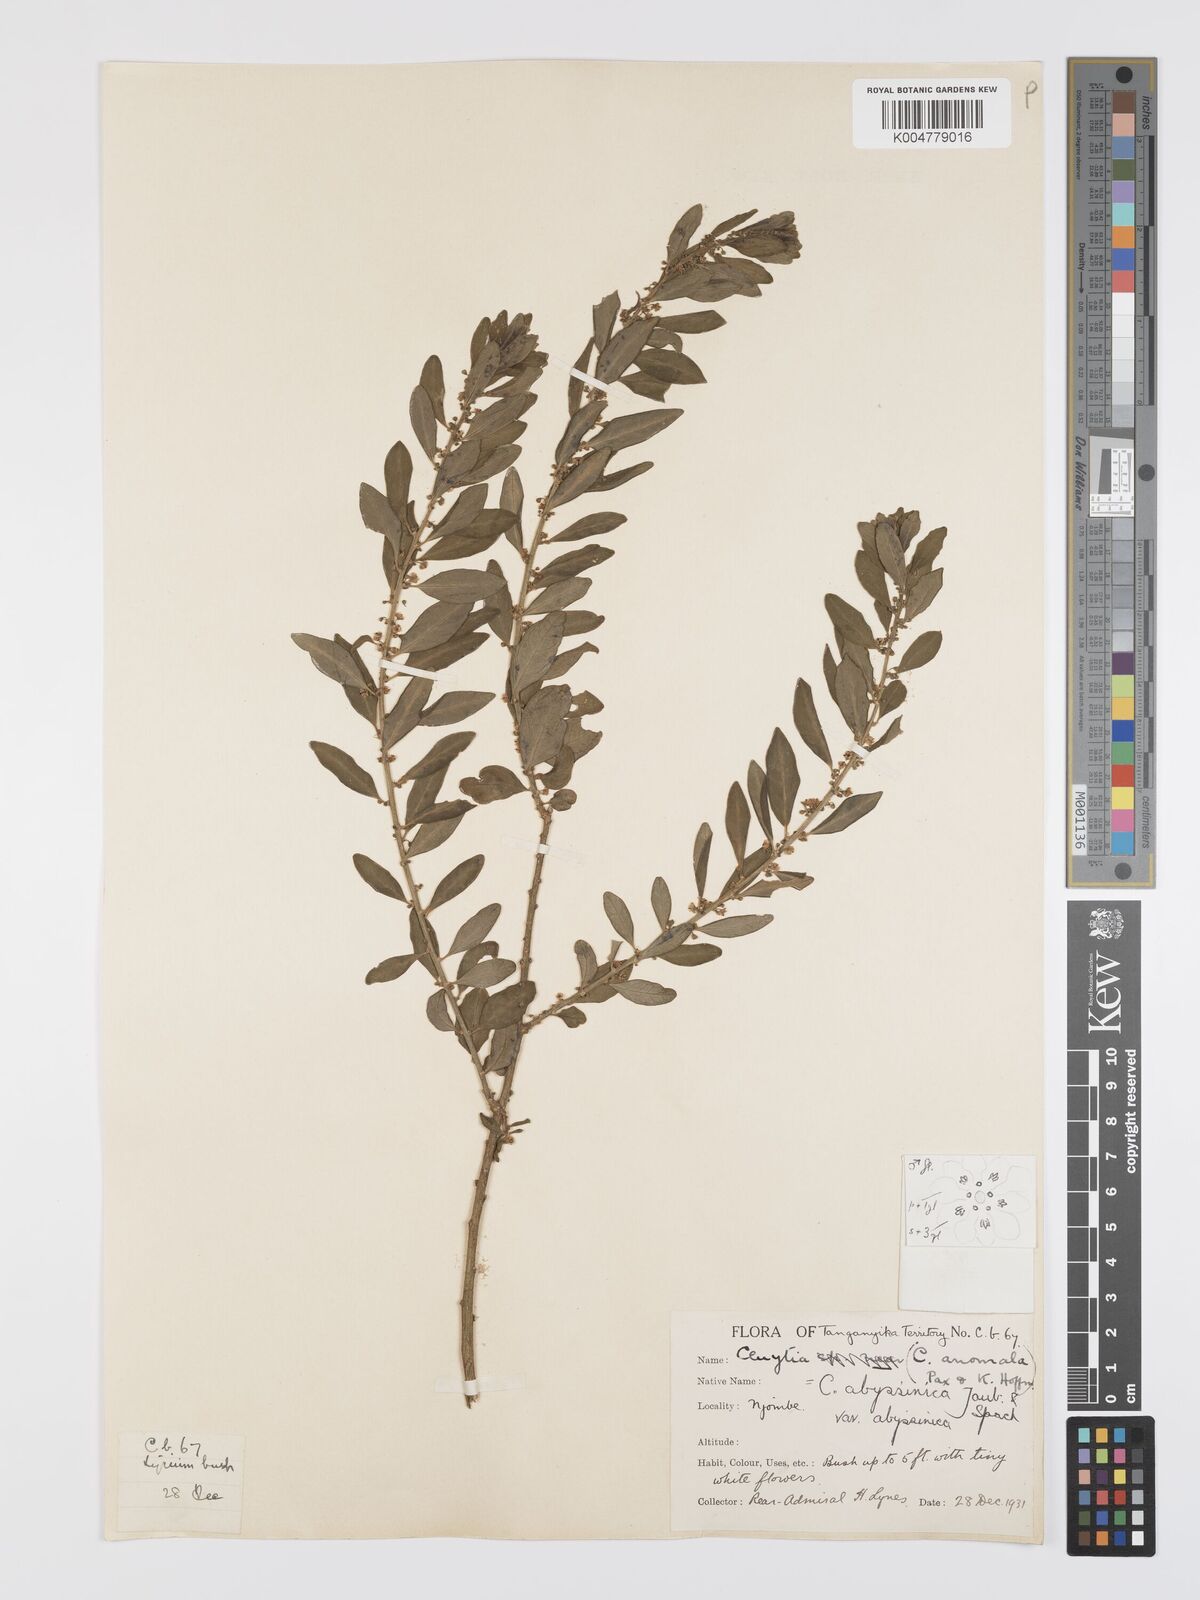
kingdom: Plantae
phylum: Tracheophyta
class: Magnoliopsida
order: Malpighiales
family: Peraceae
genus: Clutia
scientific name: Clutia abyssinica
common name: Large lightning bush
